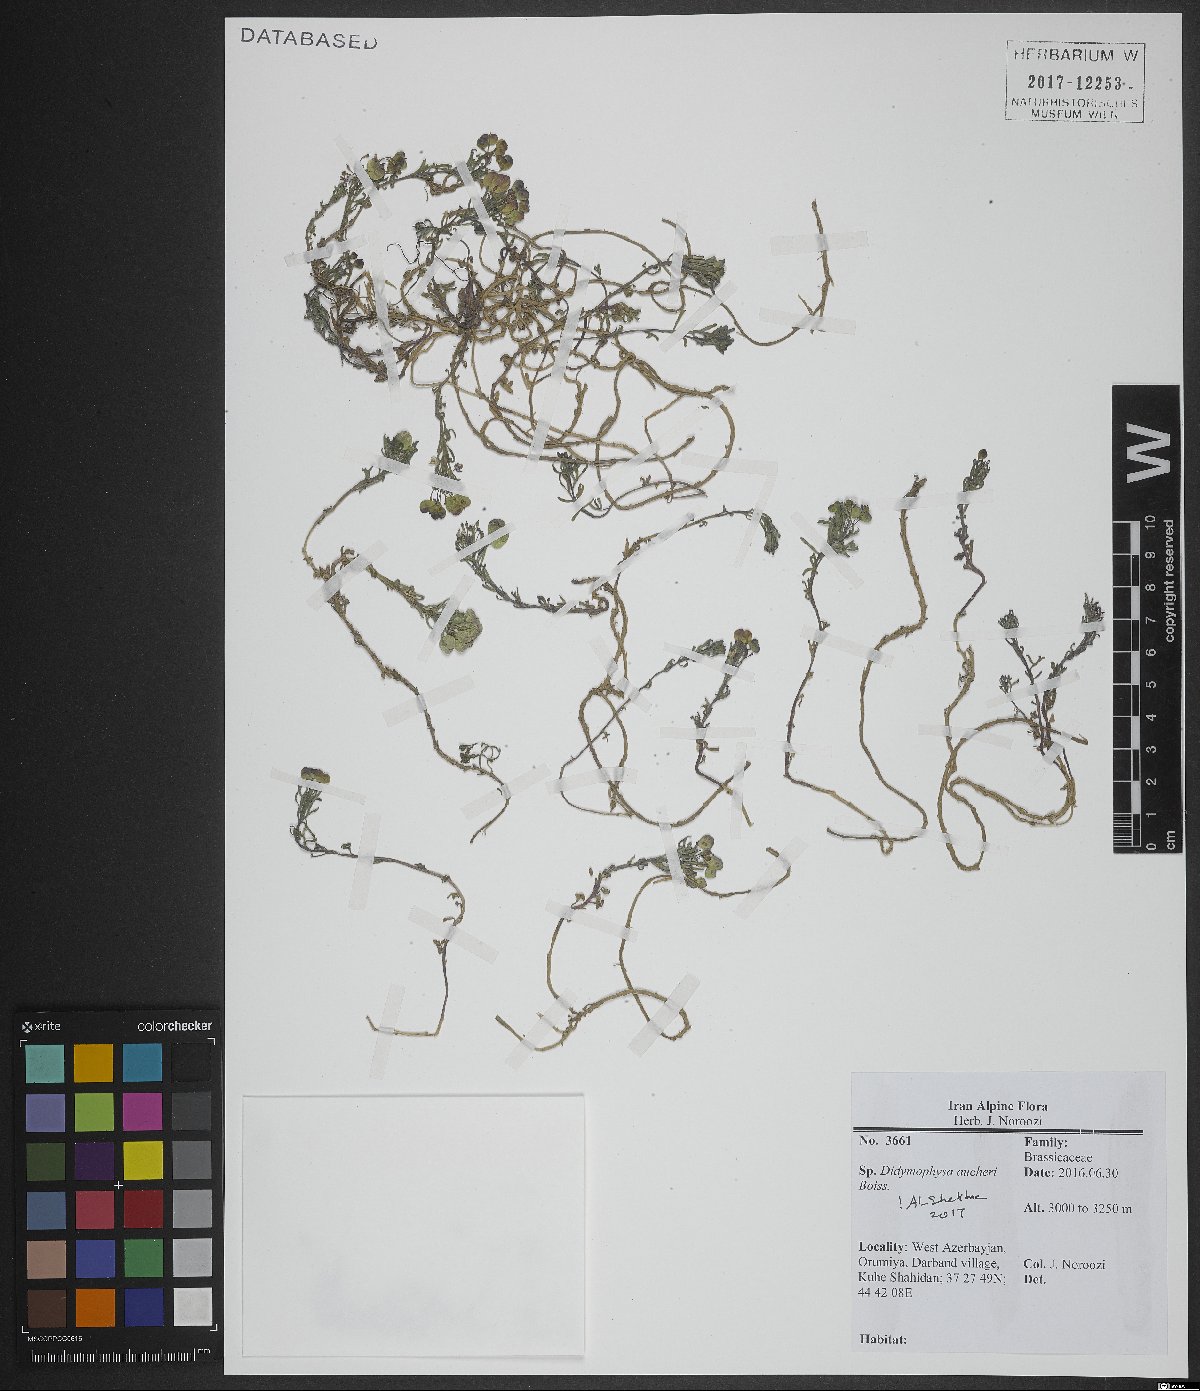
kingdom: Plantae
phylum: Tracheophyta
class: Magnoliopsida
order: Brassicales
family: Brassicaceae
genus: Didymophysa
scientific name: Didymophysa aucheri
